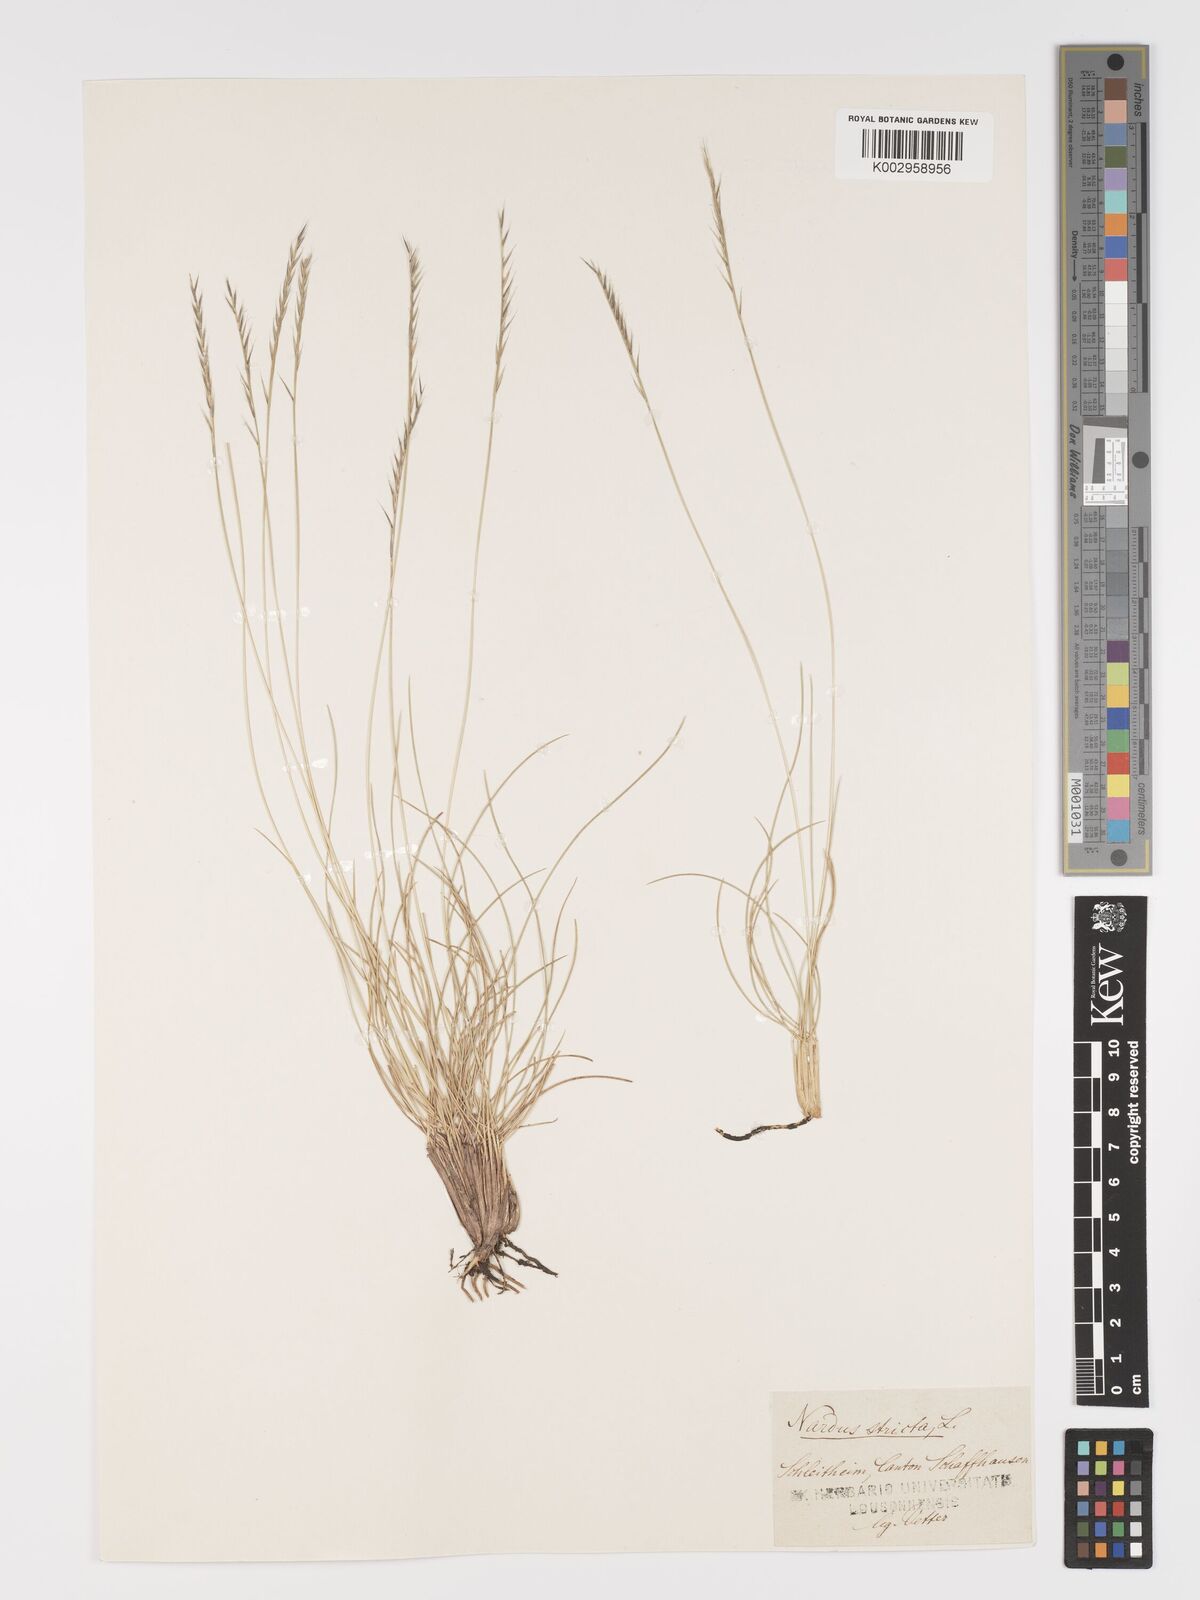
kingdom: Plantae
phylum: Tracheophyta
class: Liliopsida
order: Poales
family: Poaceae
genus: Nardus
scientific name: Nardus stricta
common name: Mat-grass
